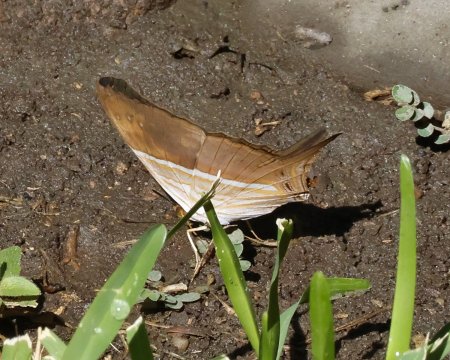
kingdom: Animalia
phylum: Arthropoda
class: Insecta
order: Lepidoptera
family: Nymphalidae
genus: Marpesia
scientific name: Marpesia chiron
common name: Many-banded Daggerwing
